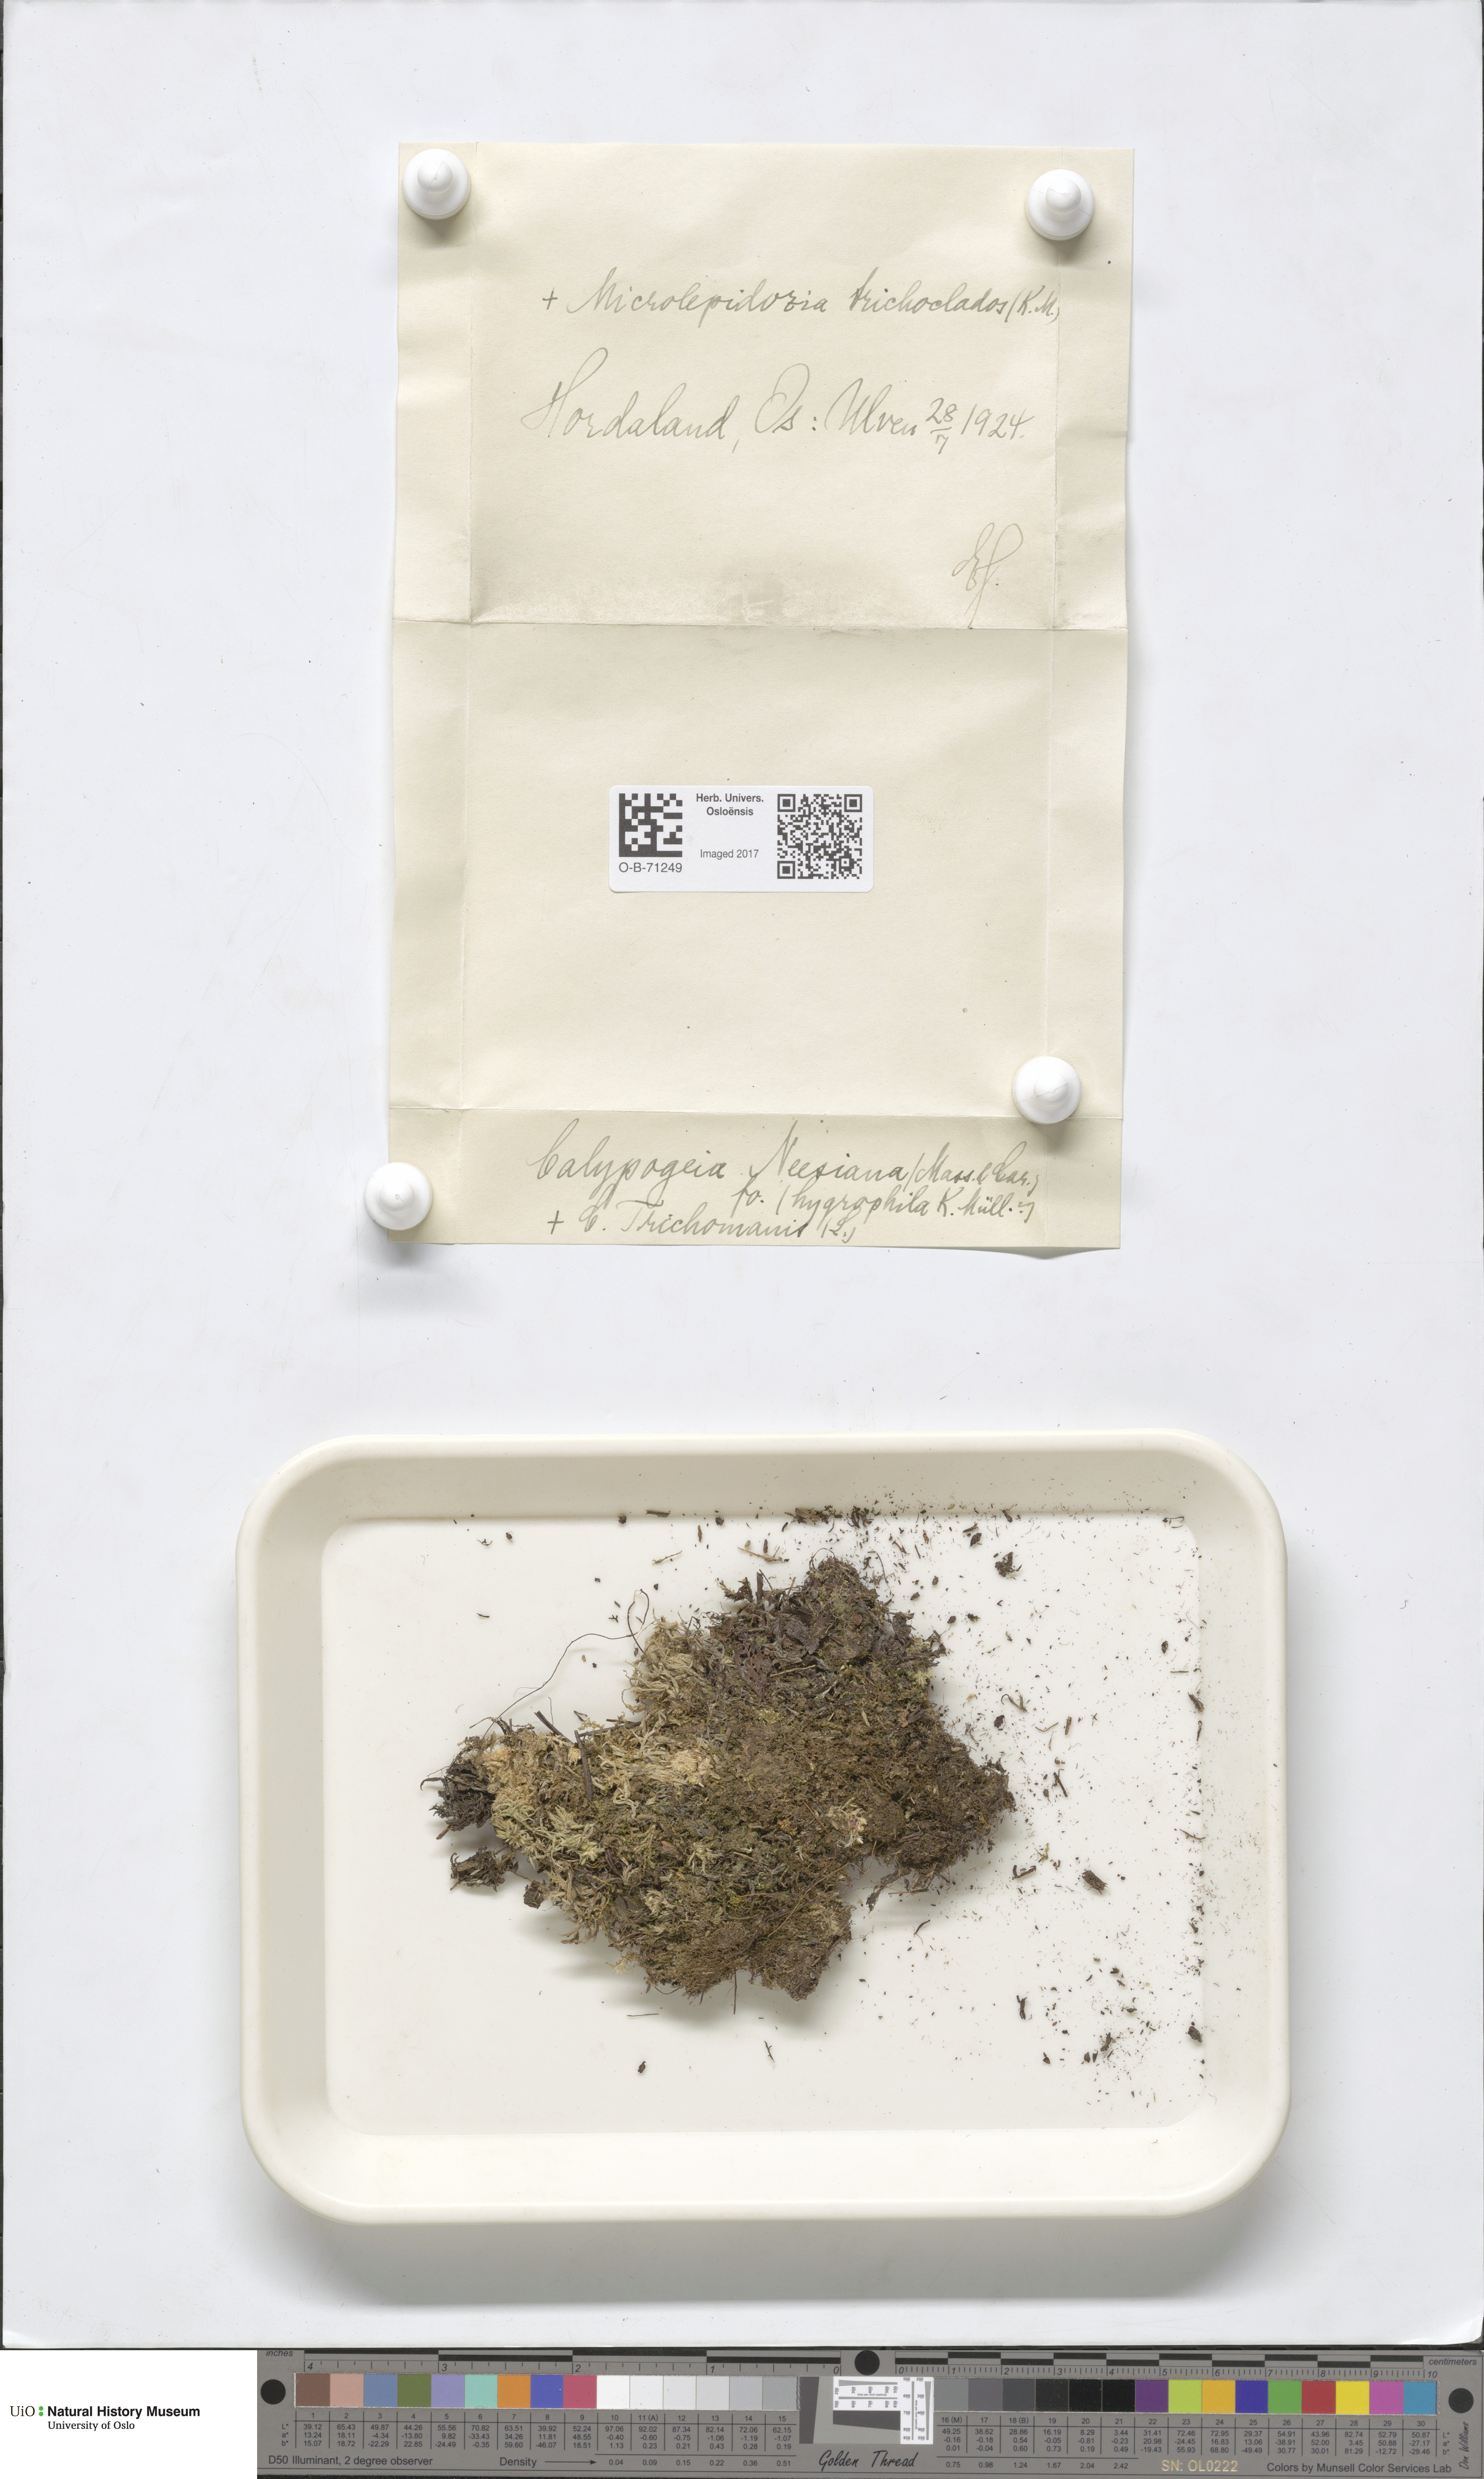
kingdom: Plantae
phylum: Marchantiophyta
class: Jungermanniopsida
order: Jungermanniales
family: Calypogeiaceae
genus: Calypogeia
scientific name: Calypogeia neesiana
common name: Nees  pouchwort
